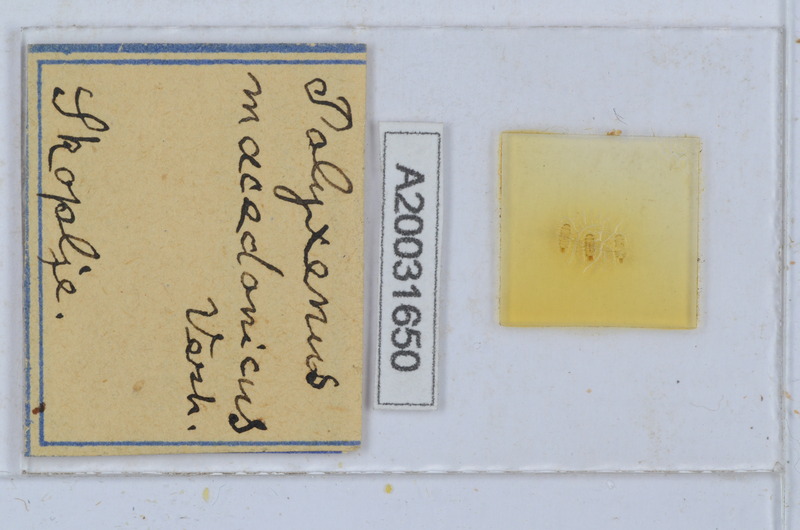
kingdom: Animalia
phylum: Arthropoda
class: Diplopoda
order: Polyxenida
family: Polyxenidae
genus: Polyxenus
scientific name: Polyxenus macedonicus
